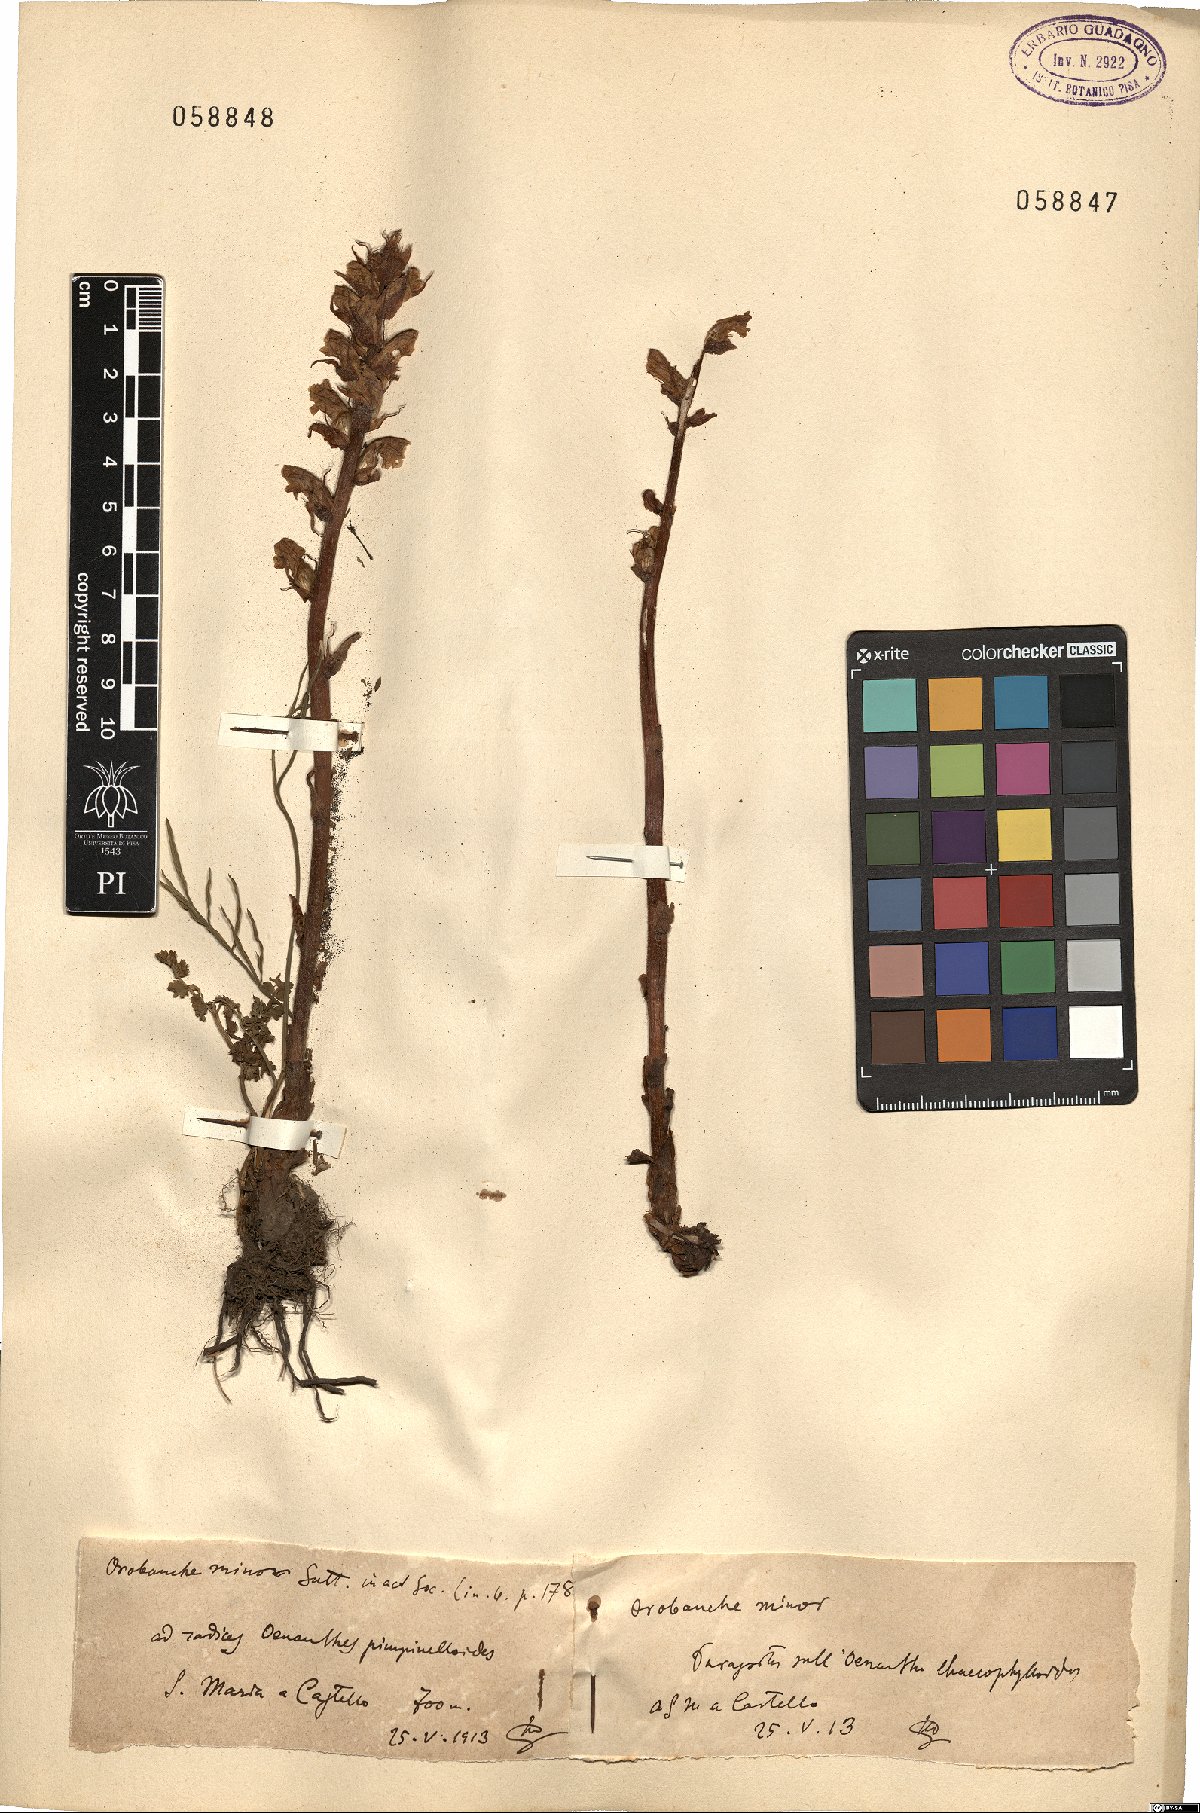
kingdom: Plantae
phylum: Tracheophyta
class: Magnoliopsida
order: Lamiales
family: Orobanchaceae
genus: Orobanche
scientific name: Orobanche minor
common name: Common broomrape
